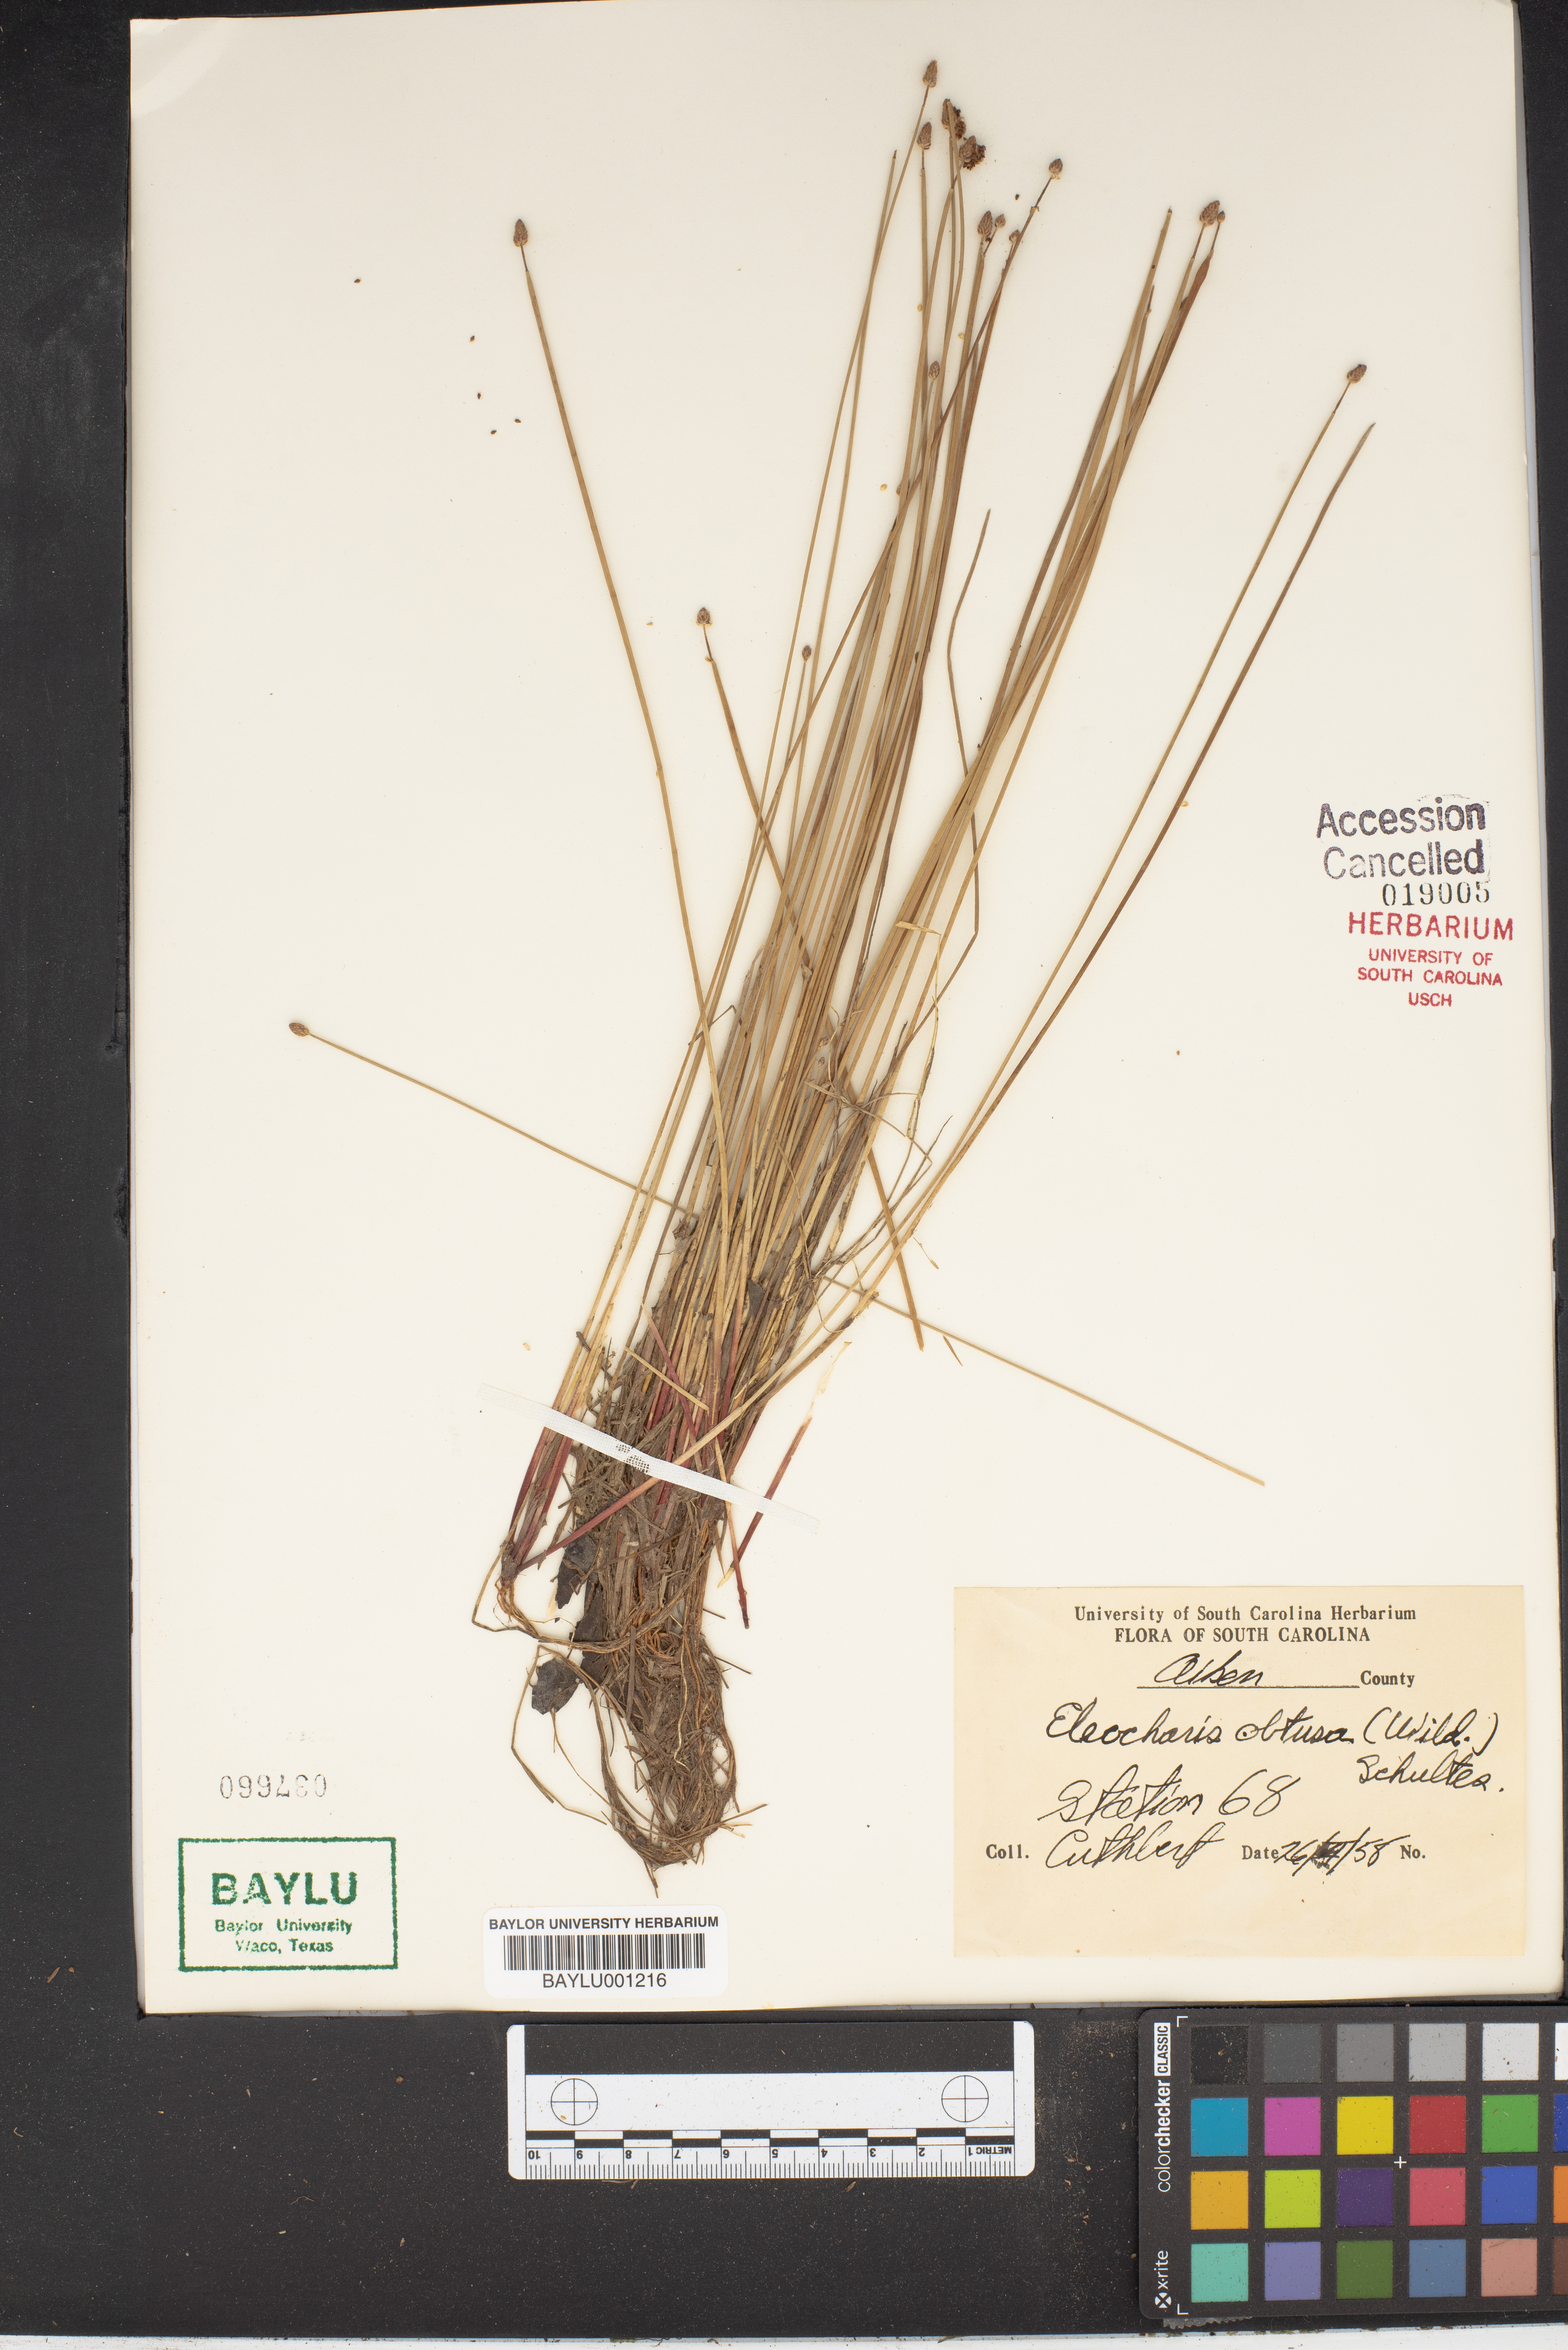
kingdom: Plantae
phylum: Tracheophyta
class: Liliopsida
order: Poales
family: Cyperaceae
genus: Eleocharis
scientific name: Eleocharis obtusa
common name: Blunt spikerush
